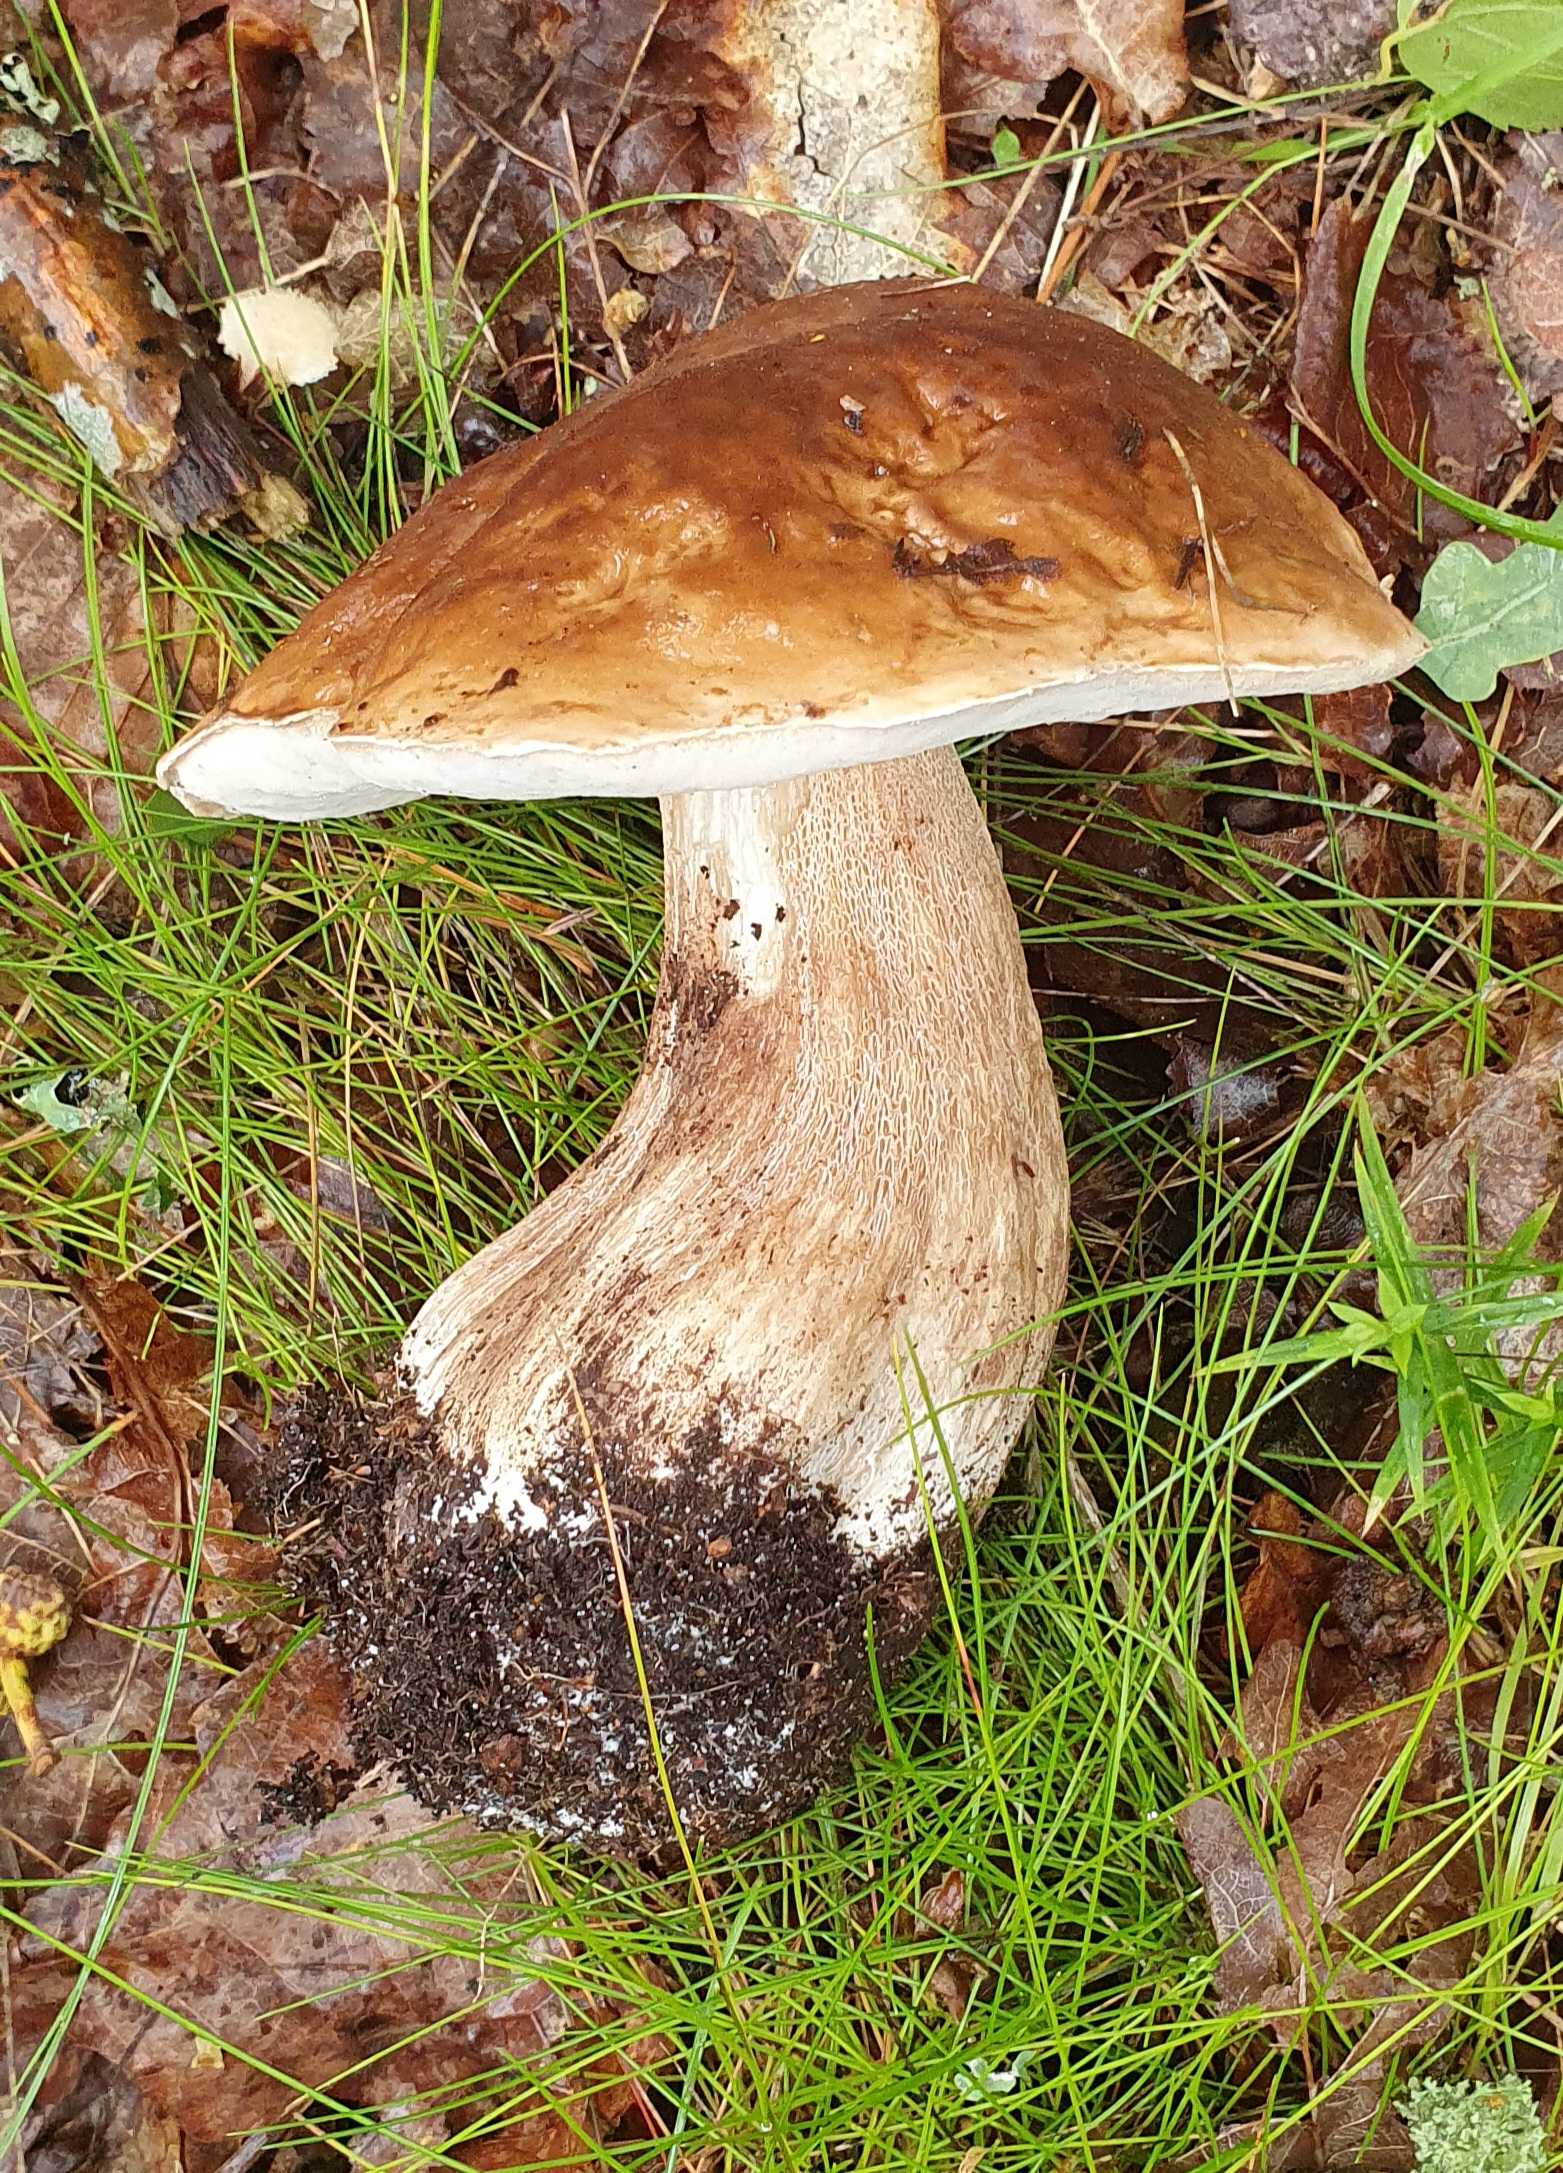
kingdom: Fungi
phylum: Basidiomycota
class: Agaricomycetes
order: Boletales
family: Boletaceae
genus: Boletus
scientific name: Boletus edulis
